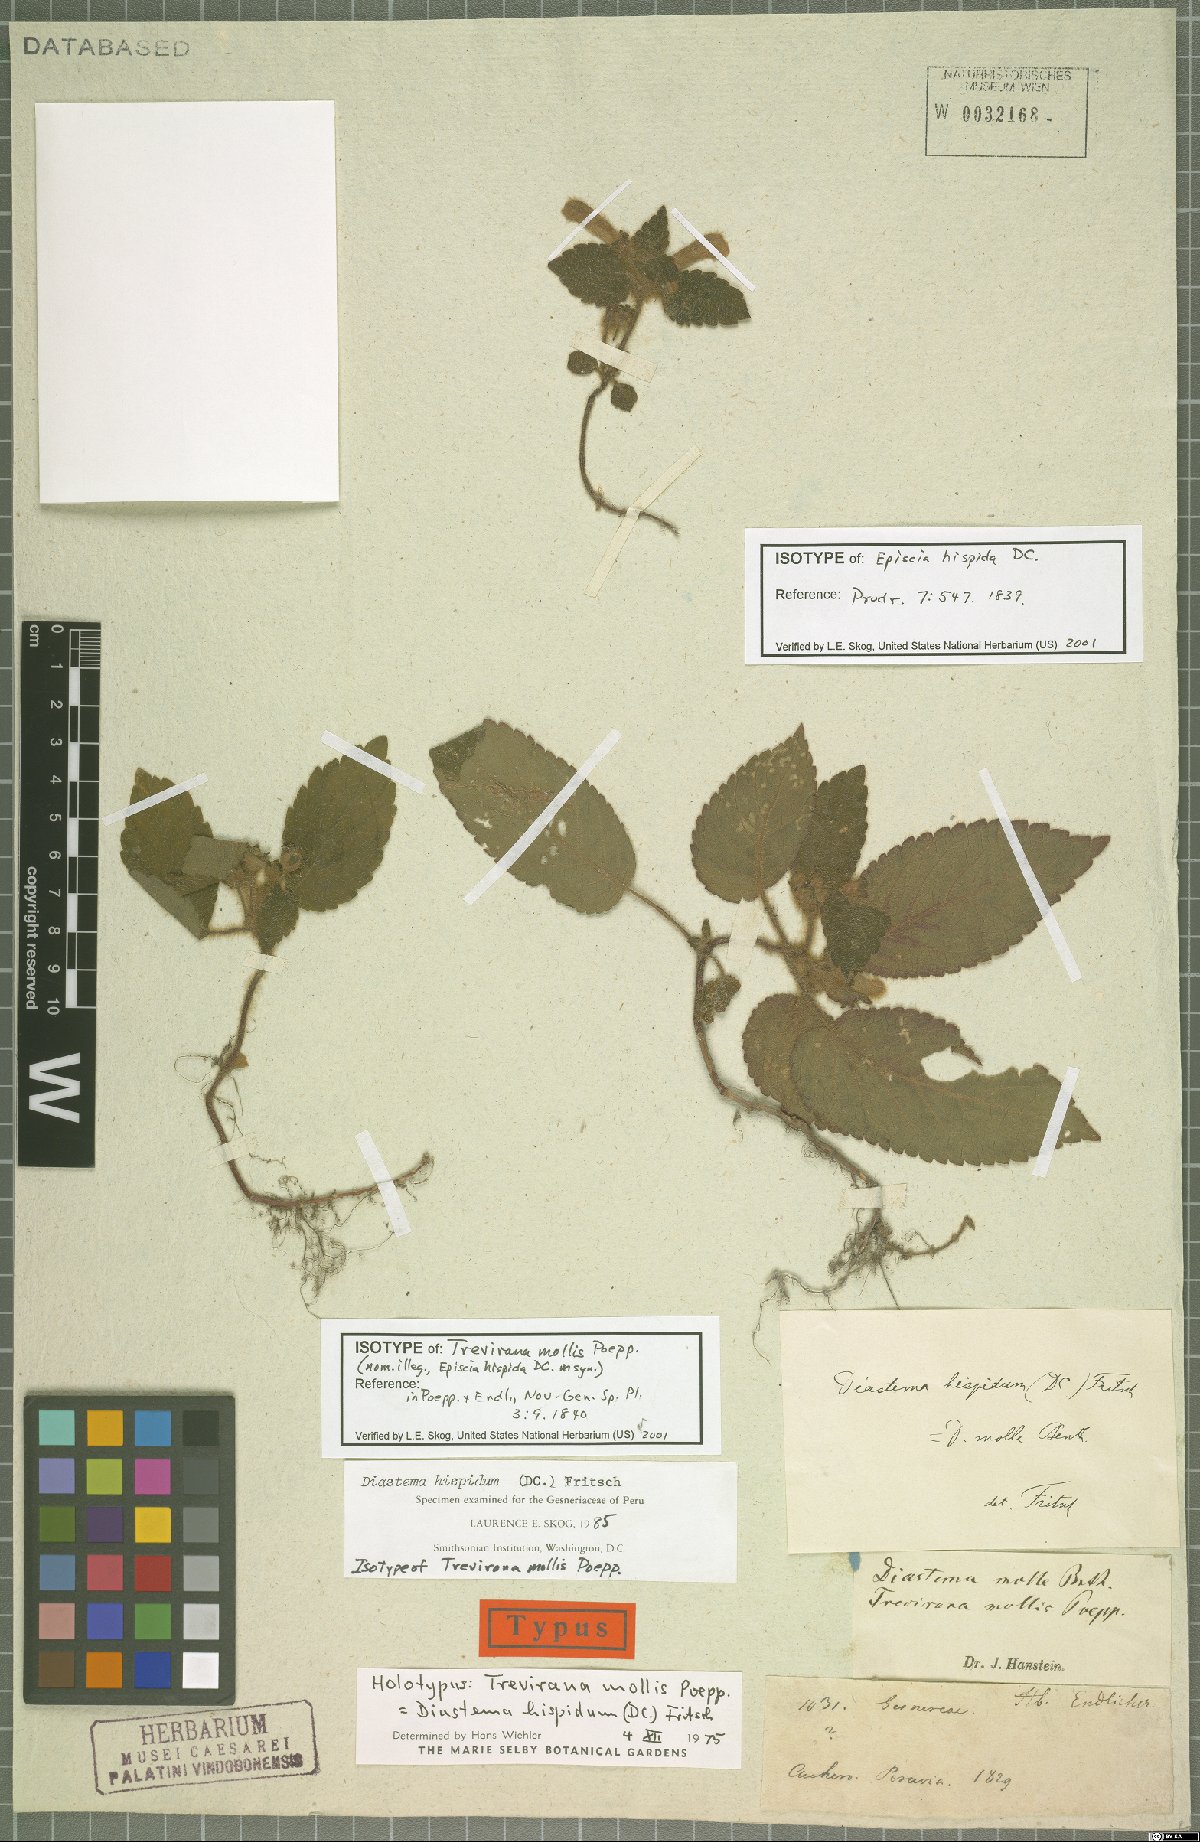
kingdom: Plantae
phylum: Tracheophyta
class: Magnoliopsida
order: Lamiales
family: Gesneriaceae
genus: Diastema
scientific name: Diastema hispidum
